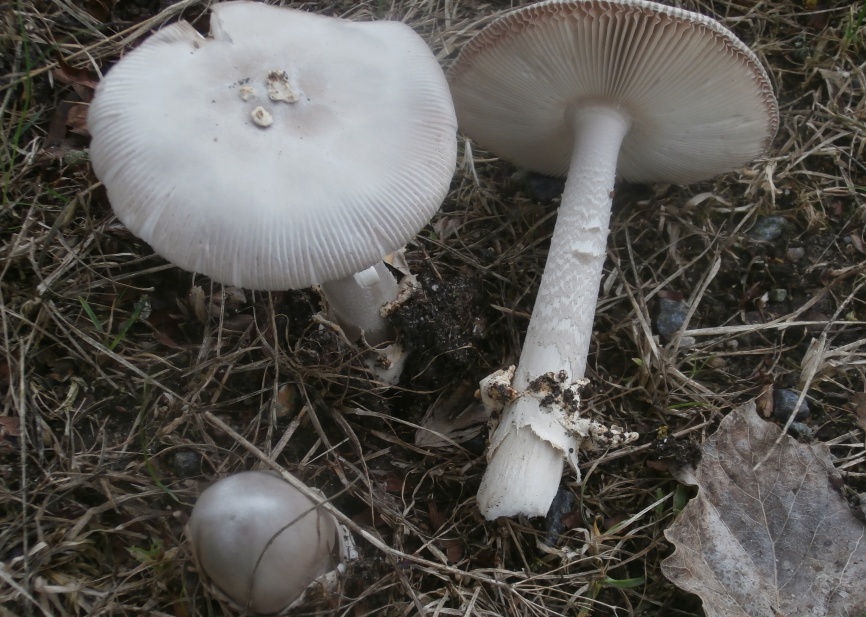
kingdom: Fungi
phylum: Basidiomycota
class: Agaricomycetes
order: Agaricales
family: Amanitaceae
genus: Amanita
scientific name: Amanita simulans
